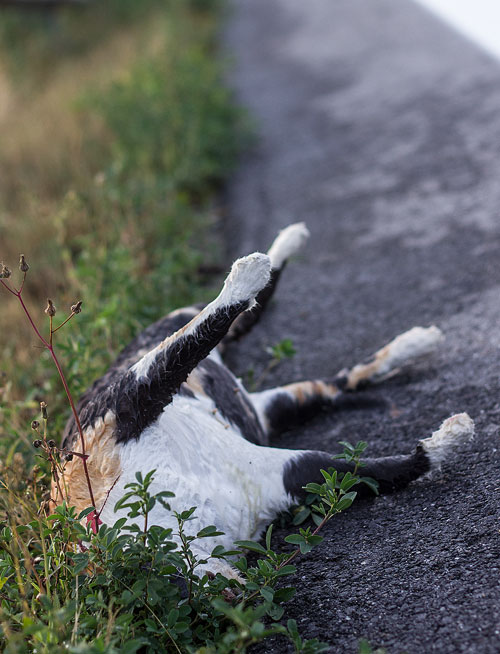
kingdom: Animalia
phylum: Chordata
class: Mammalia
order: Carnivora
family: Felidae
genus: Felis
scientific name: Felis catus
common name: Domestic cat
